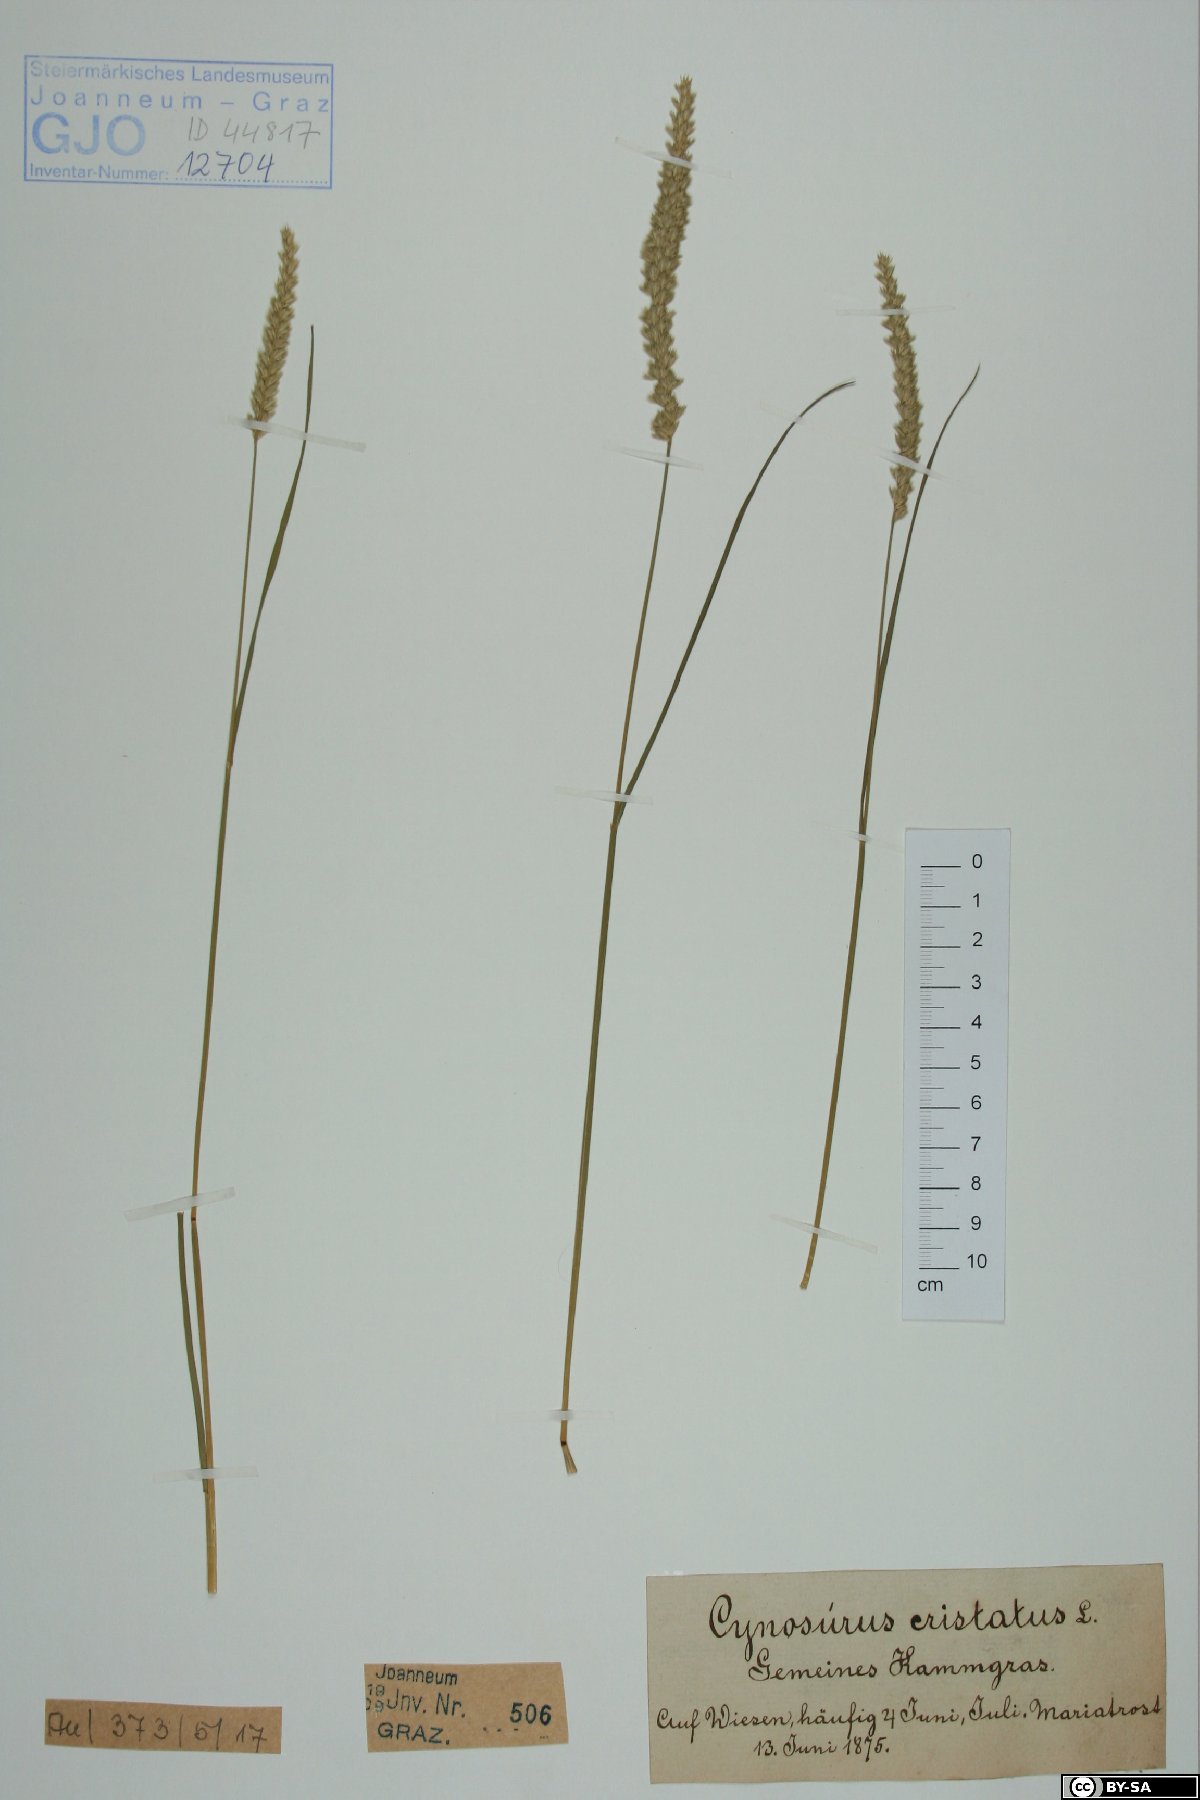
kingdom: Plantae
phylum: Tracheophyta
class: Liliopsida
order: Poales
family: Poaceae
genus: Cynosurus
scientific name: Cynosurus cristatus
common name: Crested dog's-tail
